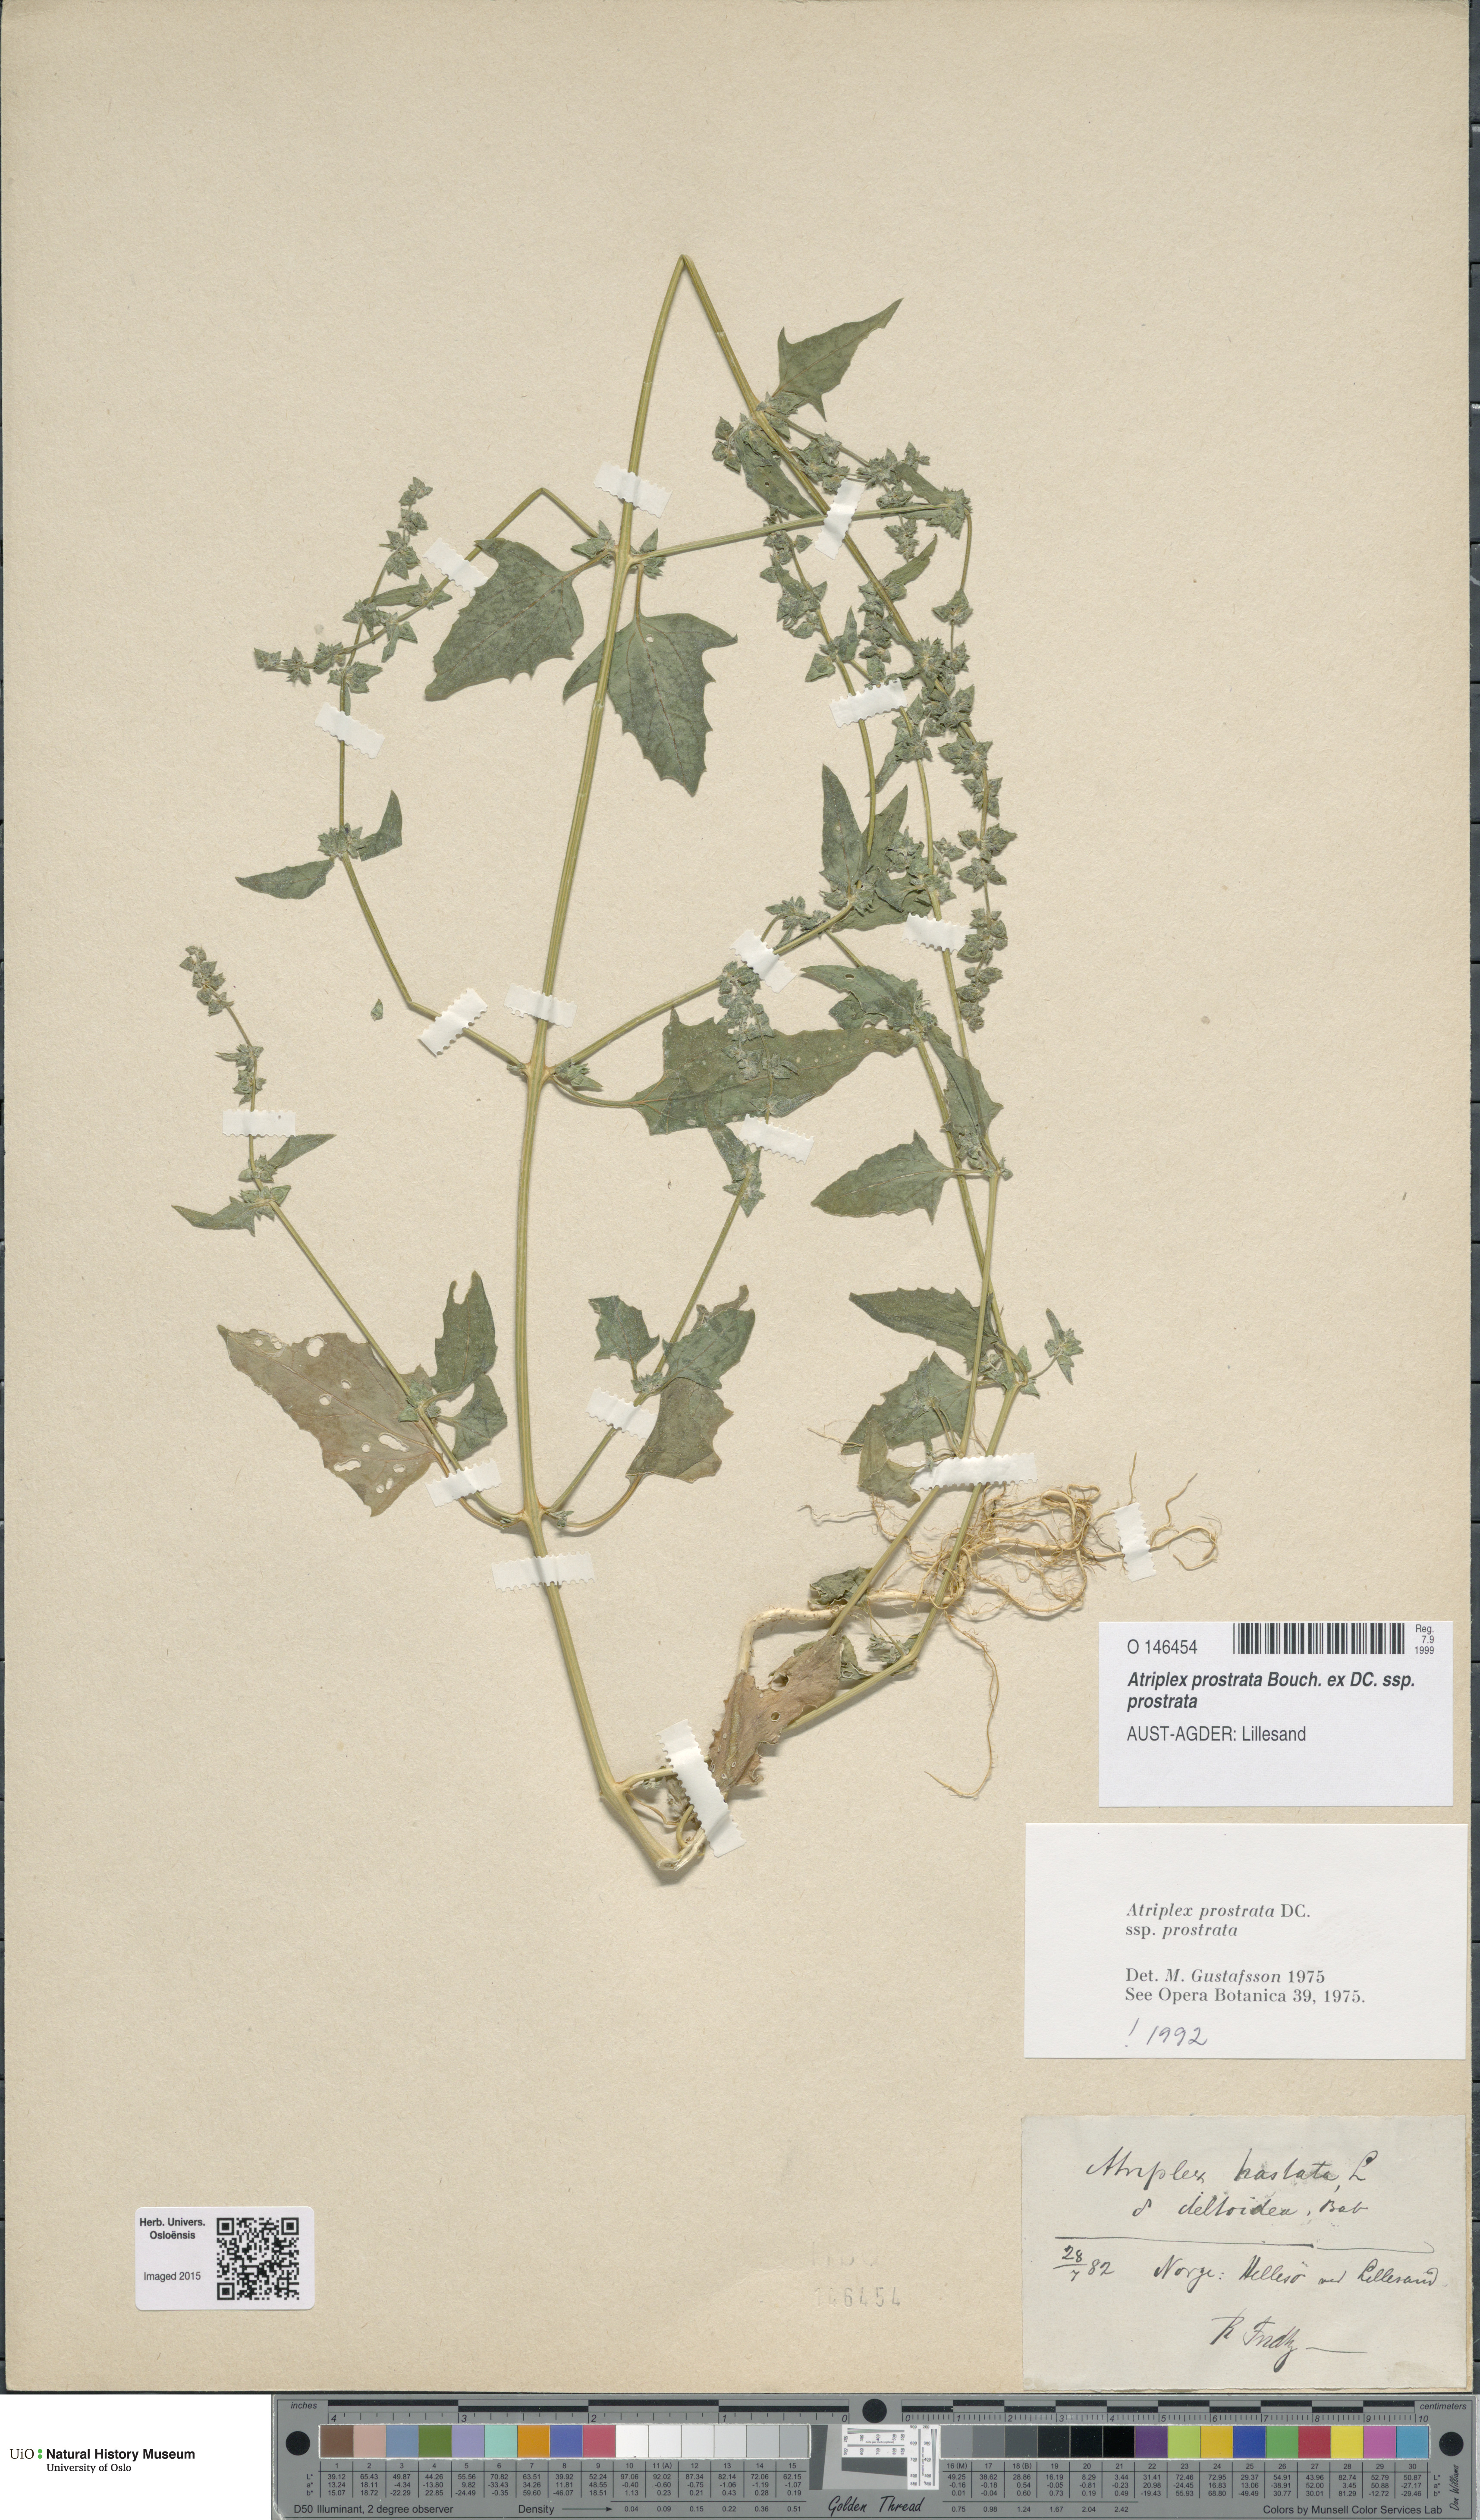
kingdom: Plantae
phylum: Tracheophyta
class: Magnoliopsida
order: Caryophyllales
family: Amaranthaceae
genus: Atriplex
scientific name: Atriplex prostrata
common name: Spear-leaved orache
